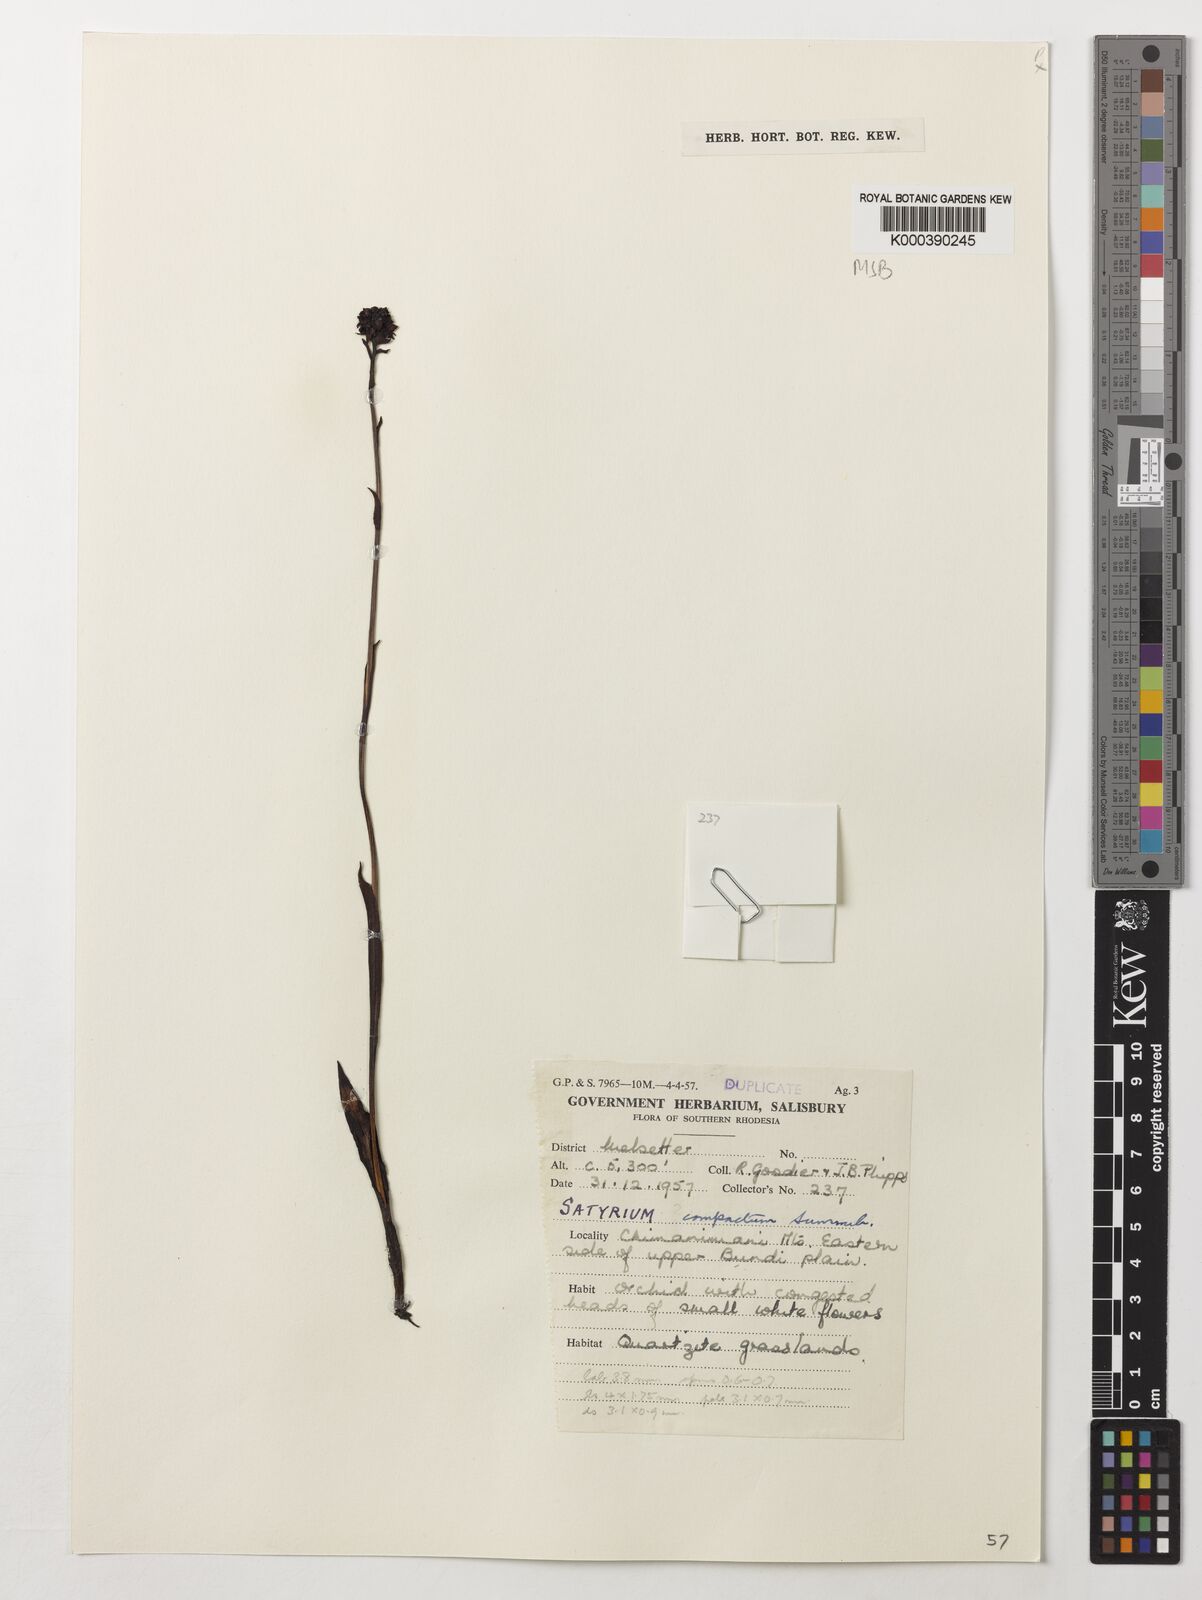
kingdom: Plantae
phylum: Tracheophyta
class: Liliopsida
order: Asparagales
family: Orchidaceae
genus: Satyrium
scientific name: Satyrium compactum
